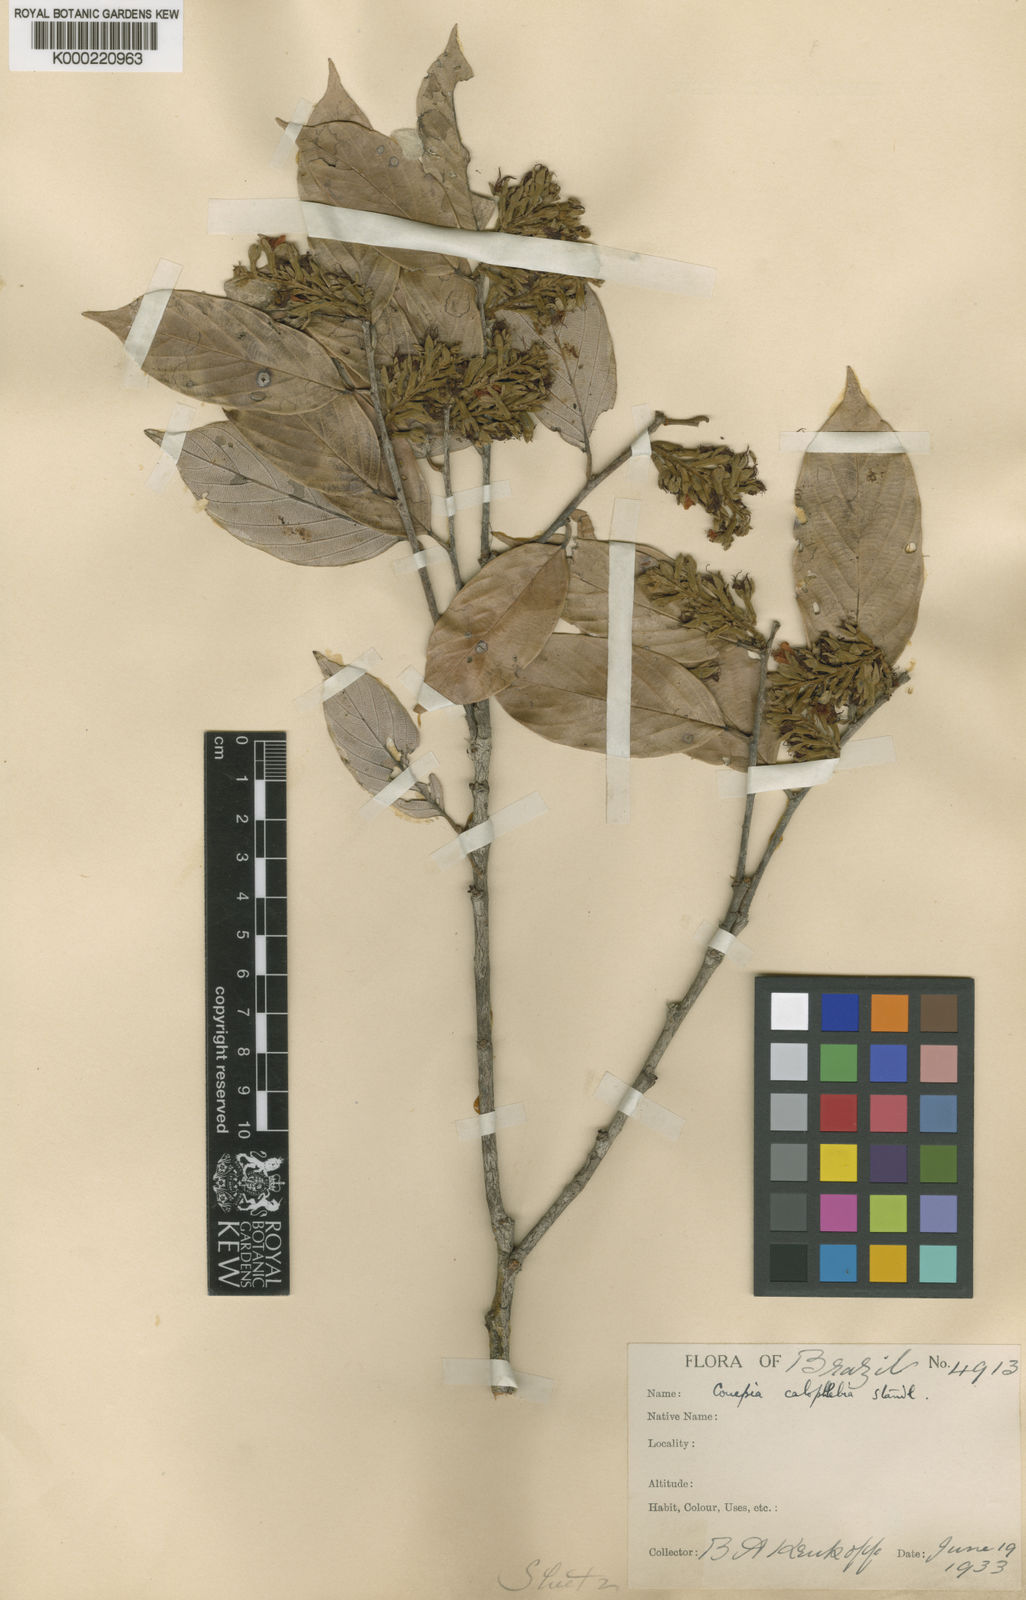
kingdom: Plantae
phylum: Tracheophyta
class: Magnoliopsida
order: Malpighiales
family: Chrysobalanaceae
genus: Gaulettia
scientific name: Gaulettia racemosa
